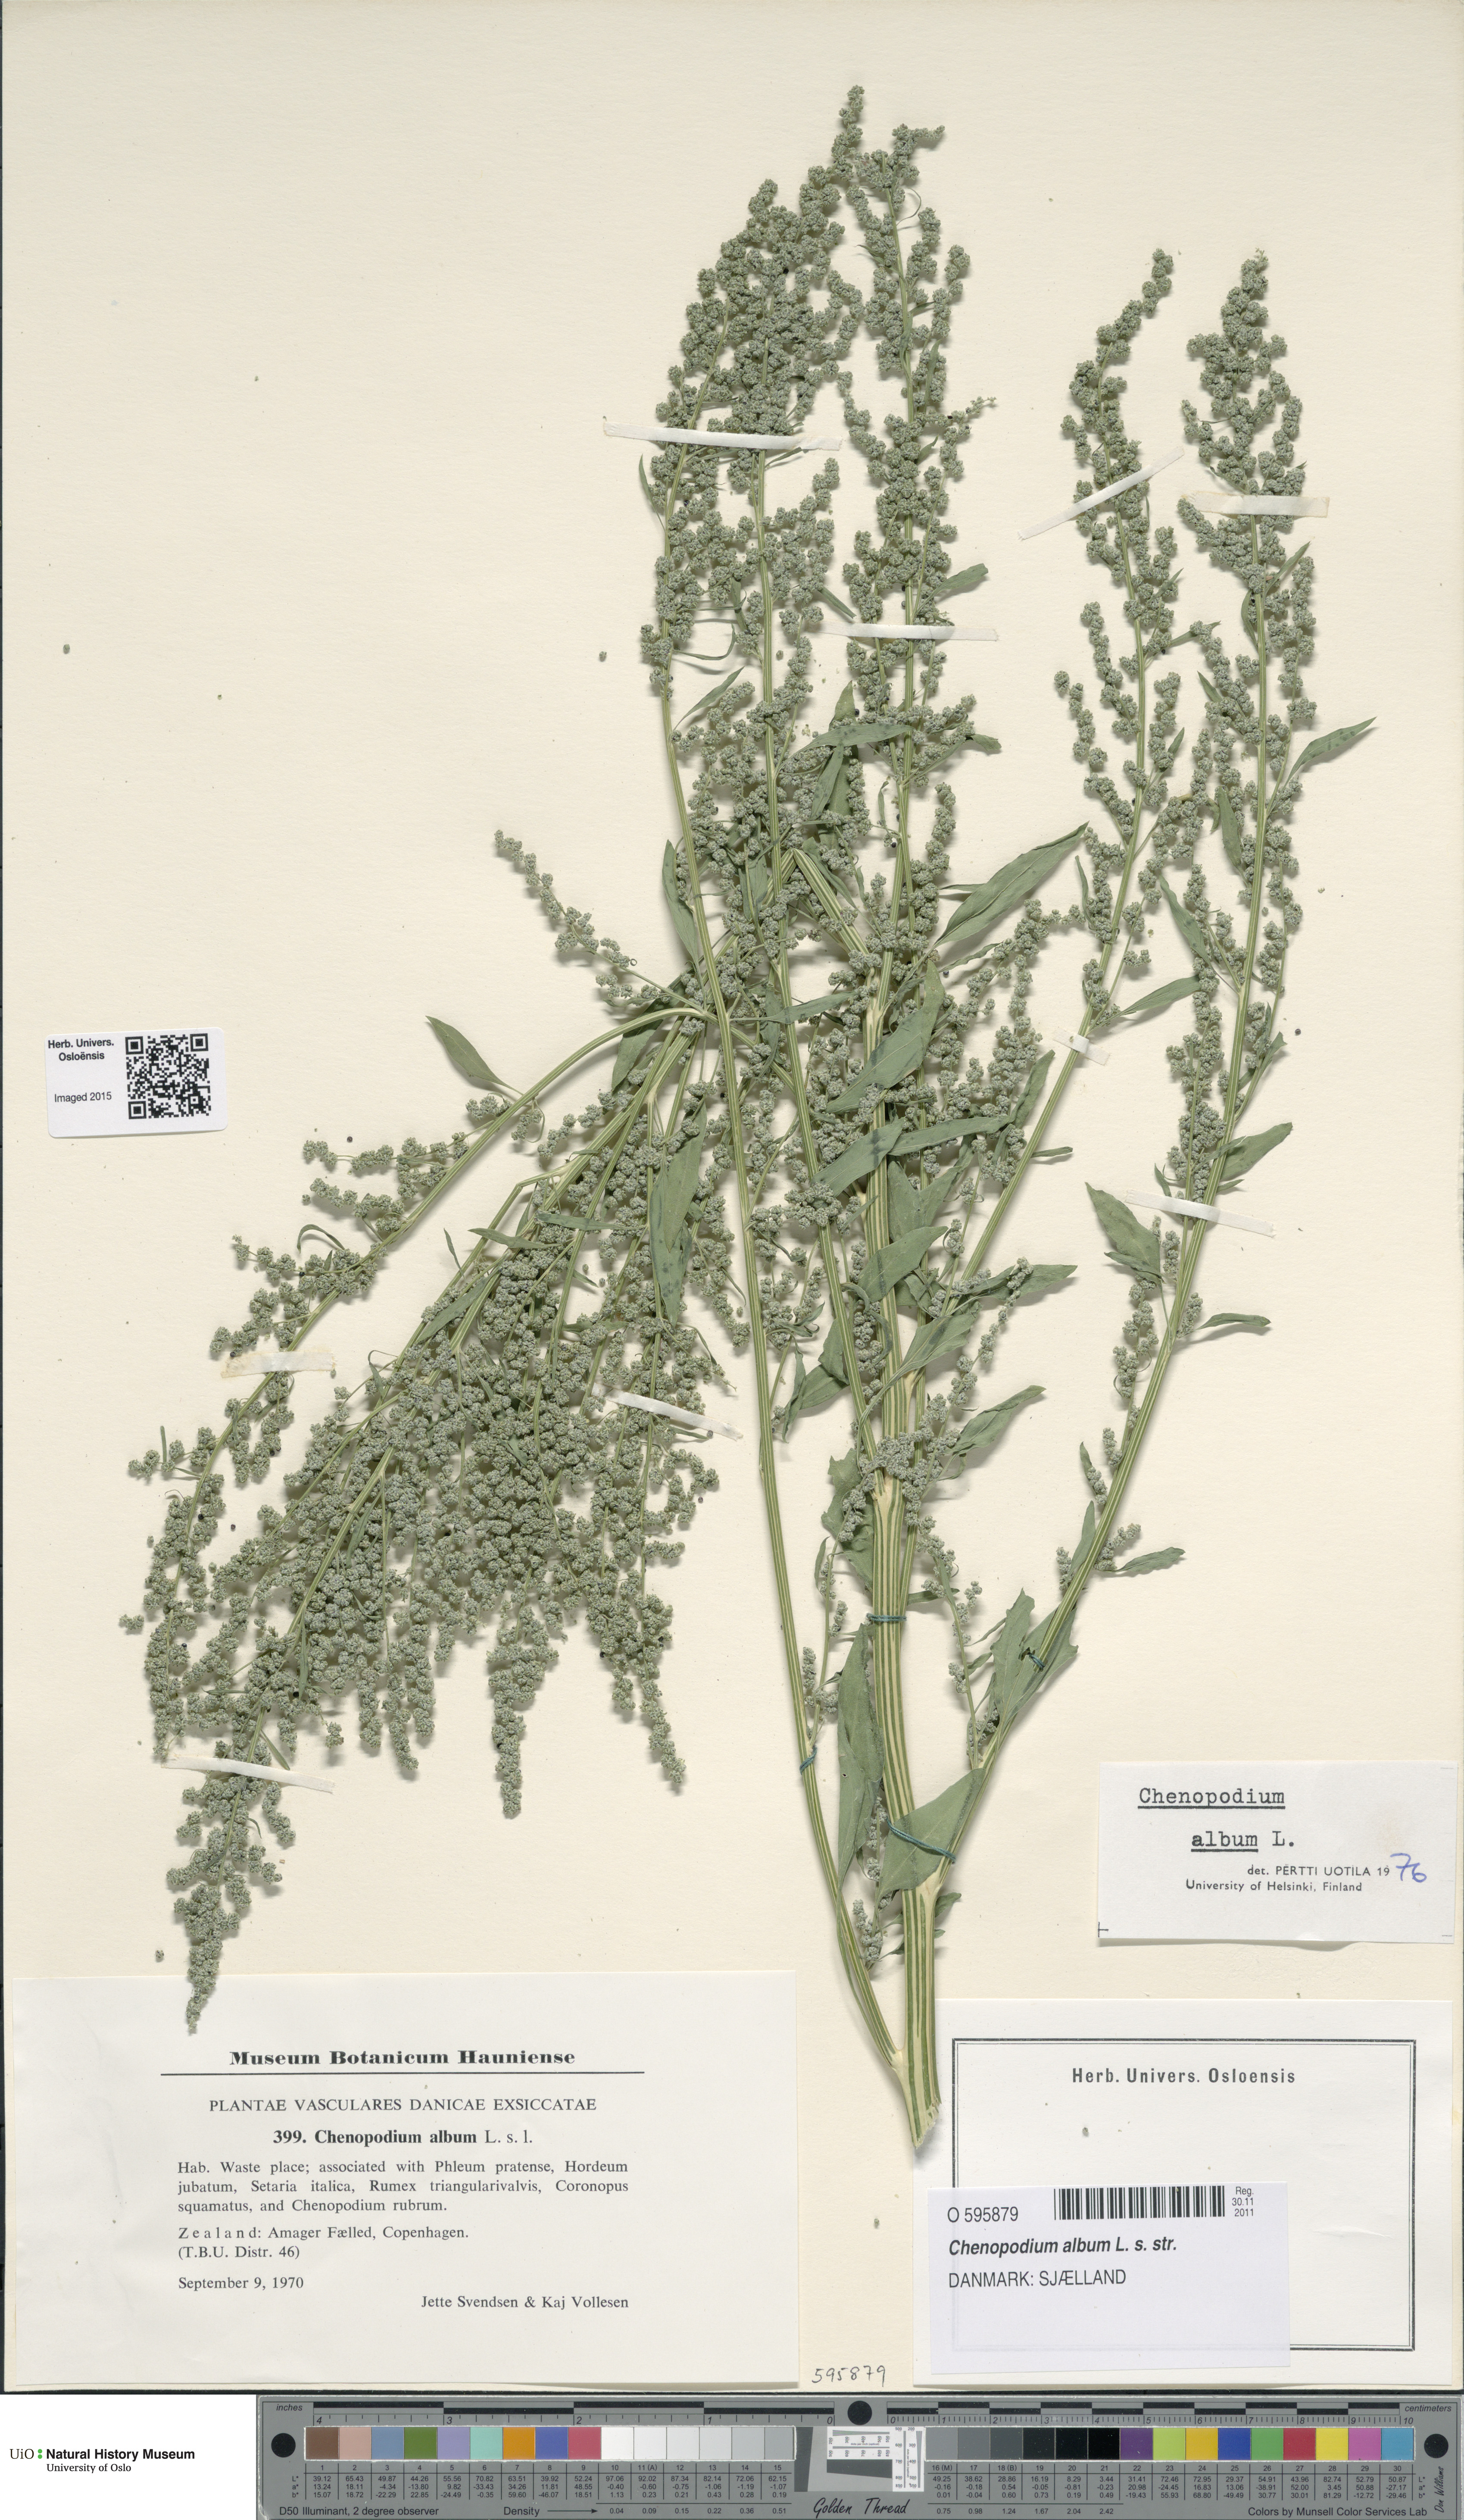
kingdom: Plantae
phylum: Tracheophyta
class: Magnoliopsida
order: Caryophyllales
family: Amaranthaceae
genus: Chenopodium
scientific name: Chenopodium album
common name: Fat-hen
